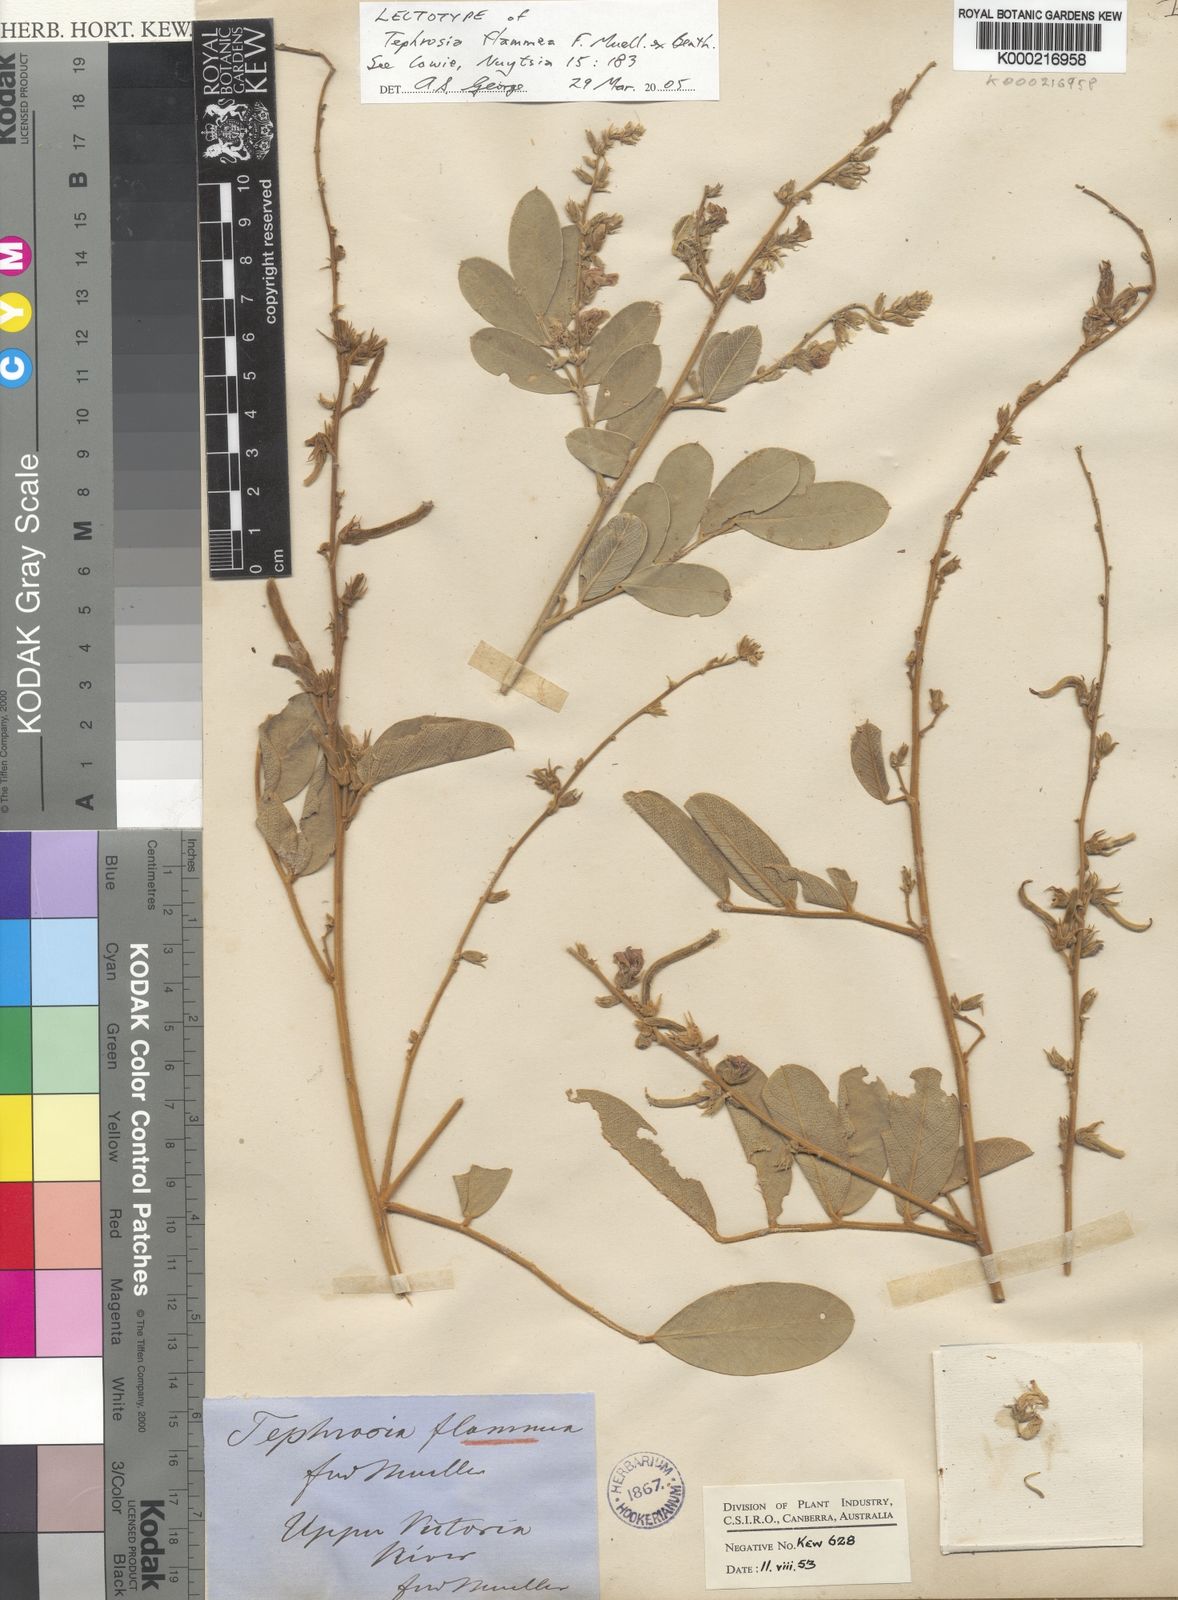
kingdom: Plantae
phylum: Tracheophyta
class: Magnoliopsida
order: Fabales
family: Fabaceae
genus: Tephrosia
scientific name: Tephrosia flammea
